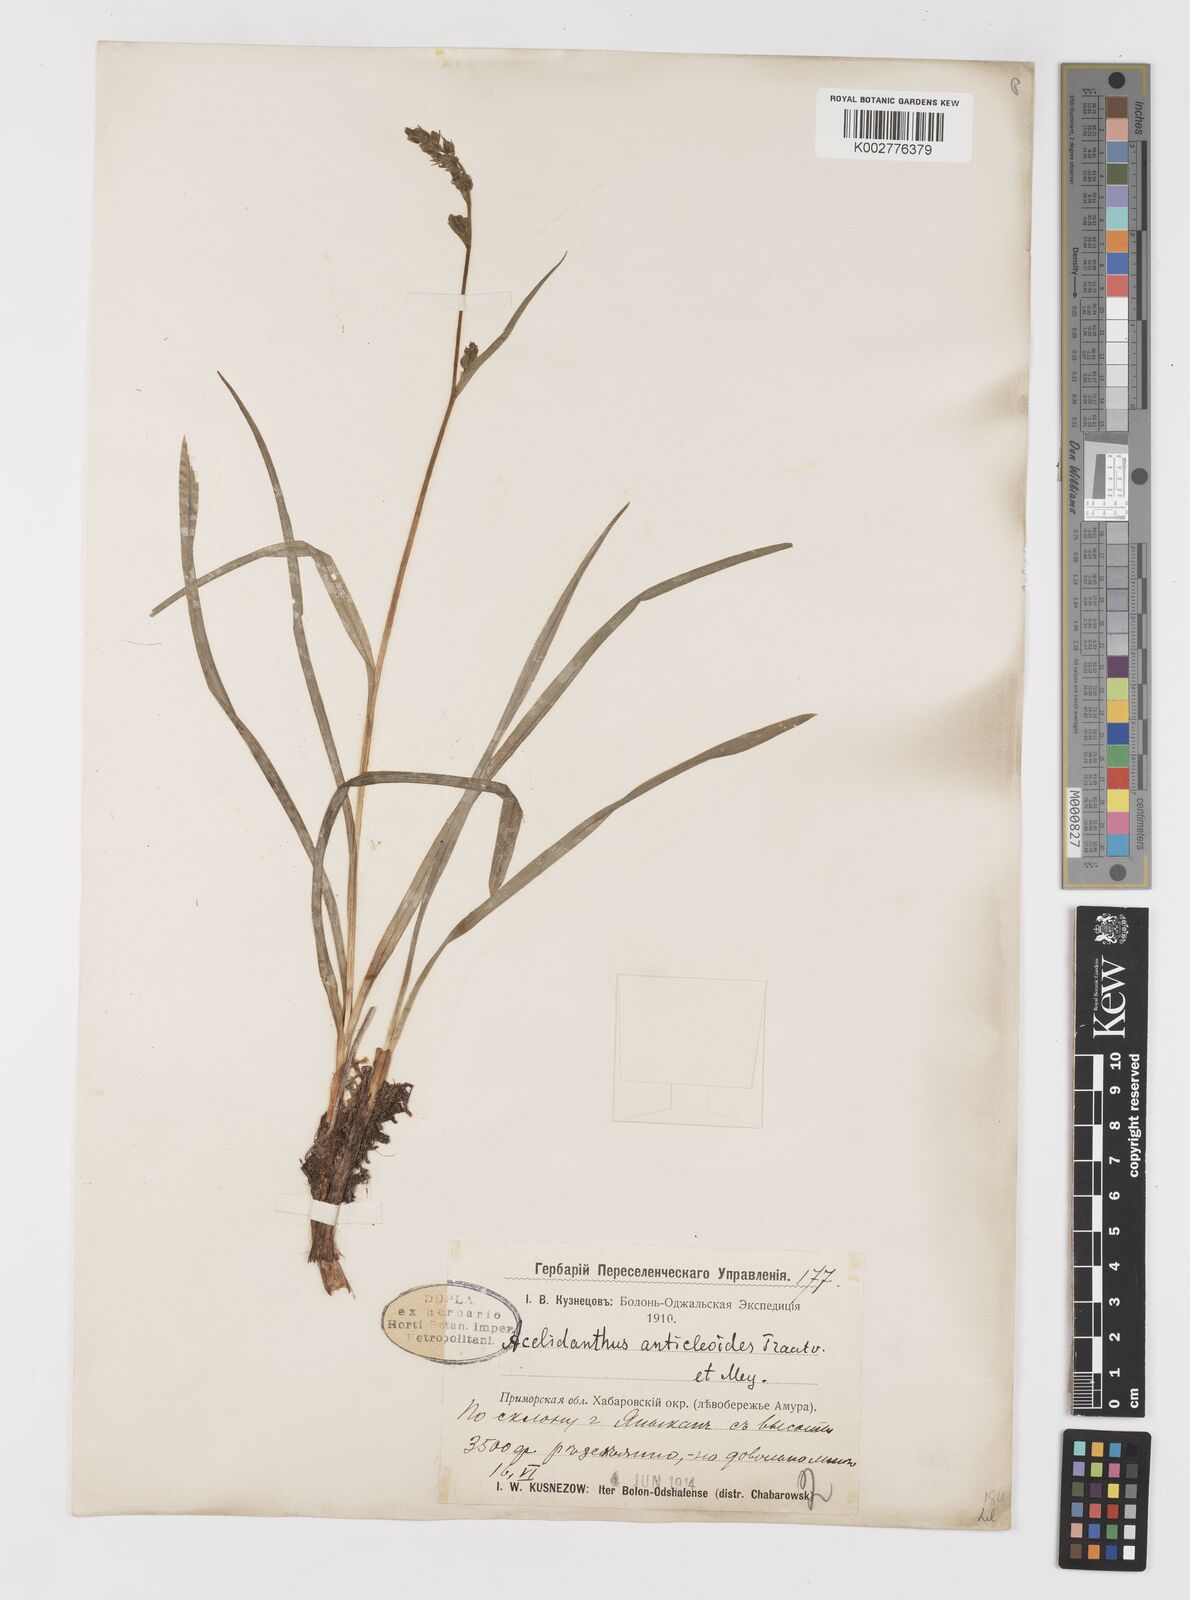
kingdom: Plantae
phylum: Tracheophyta
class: Liliopsida
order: Liliales
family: Melanthiaceae
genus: Veratrum
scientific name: Veratrum anticleoides
